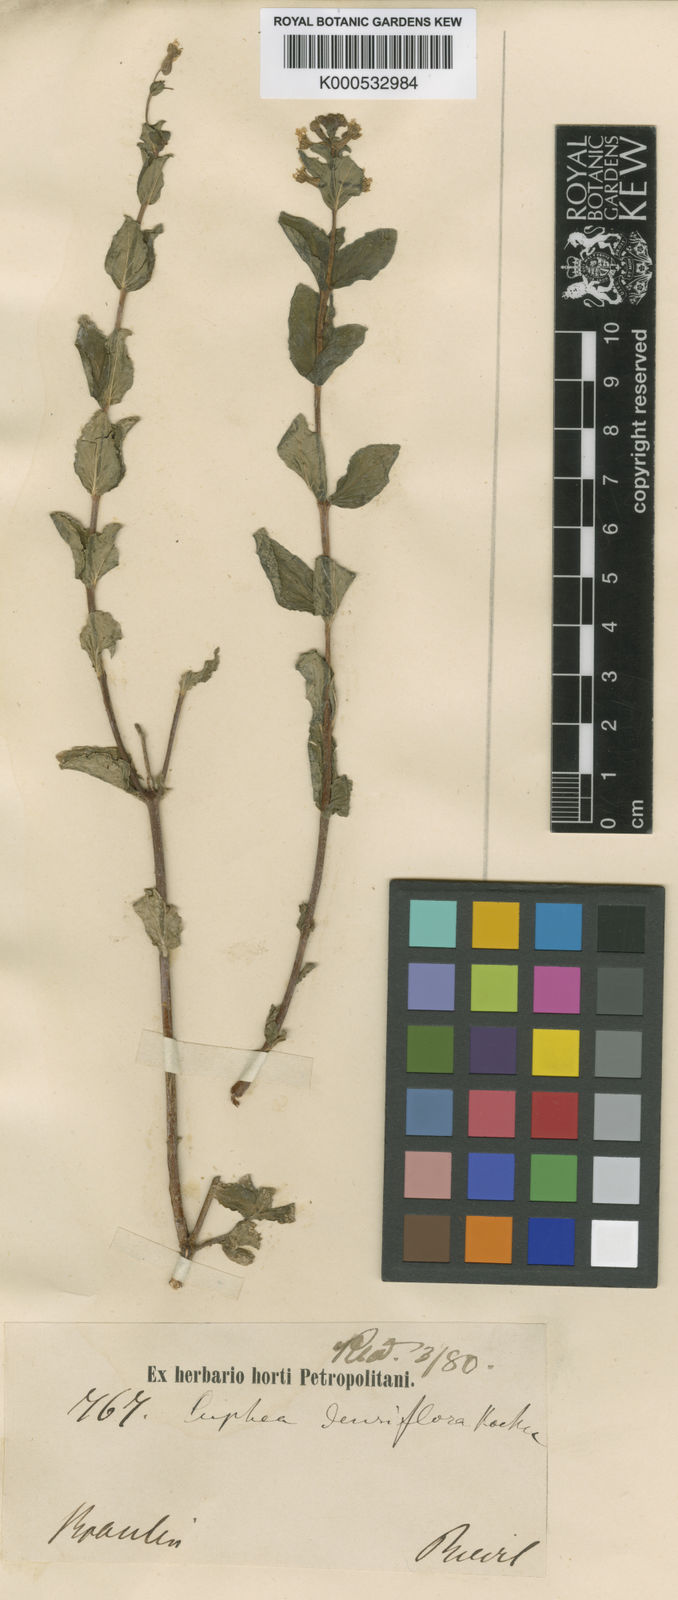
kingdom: Plantae
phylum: Tracheophyta
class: Magnoliopsida
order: Myrtales
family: Lythraceae
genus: Cuphea
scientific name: Cuphea racemosa
